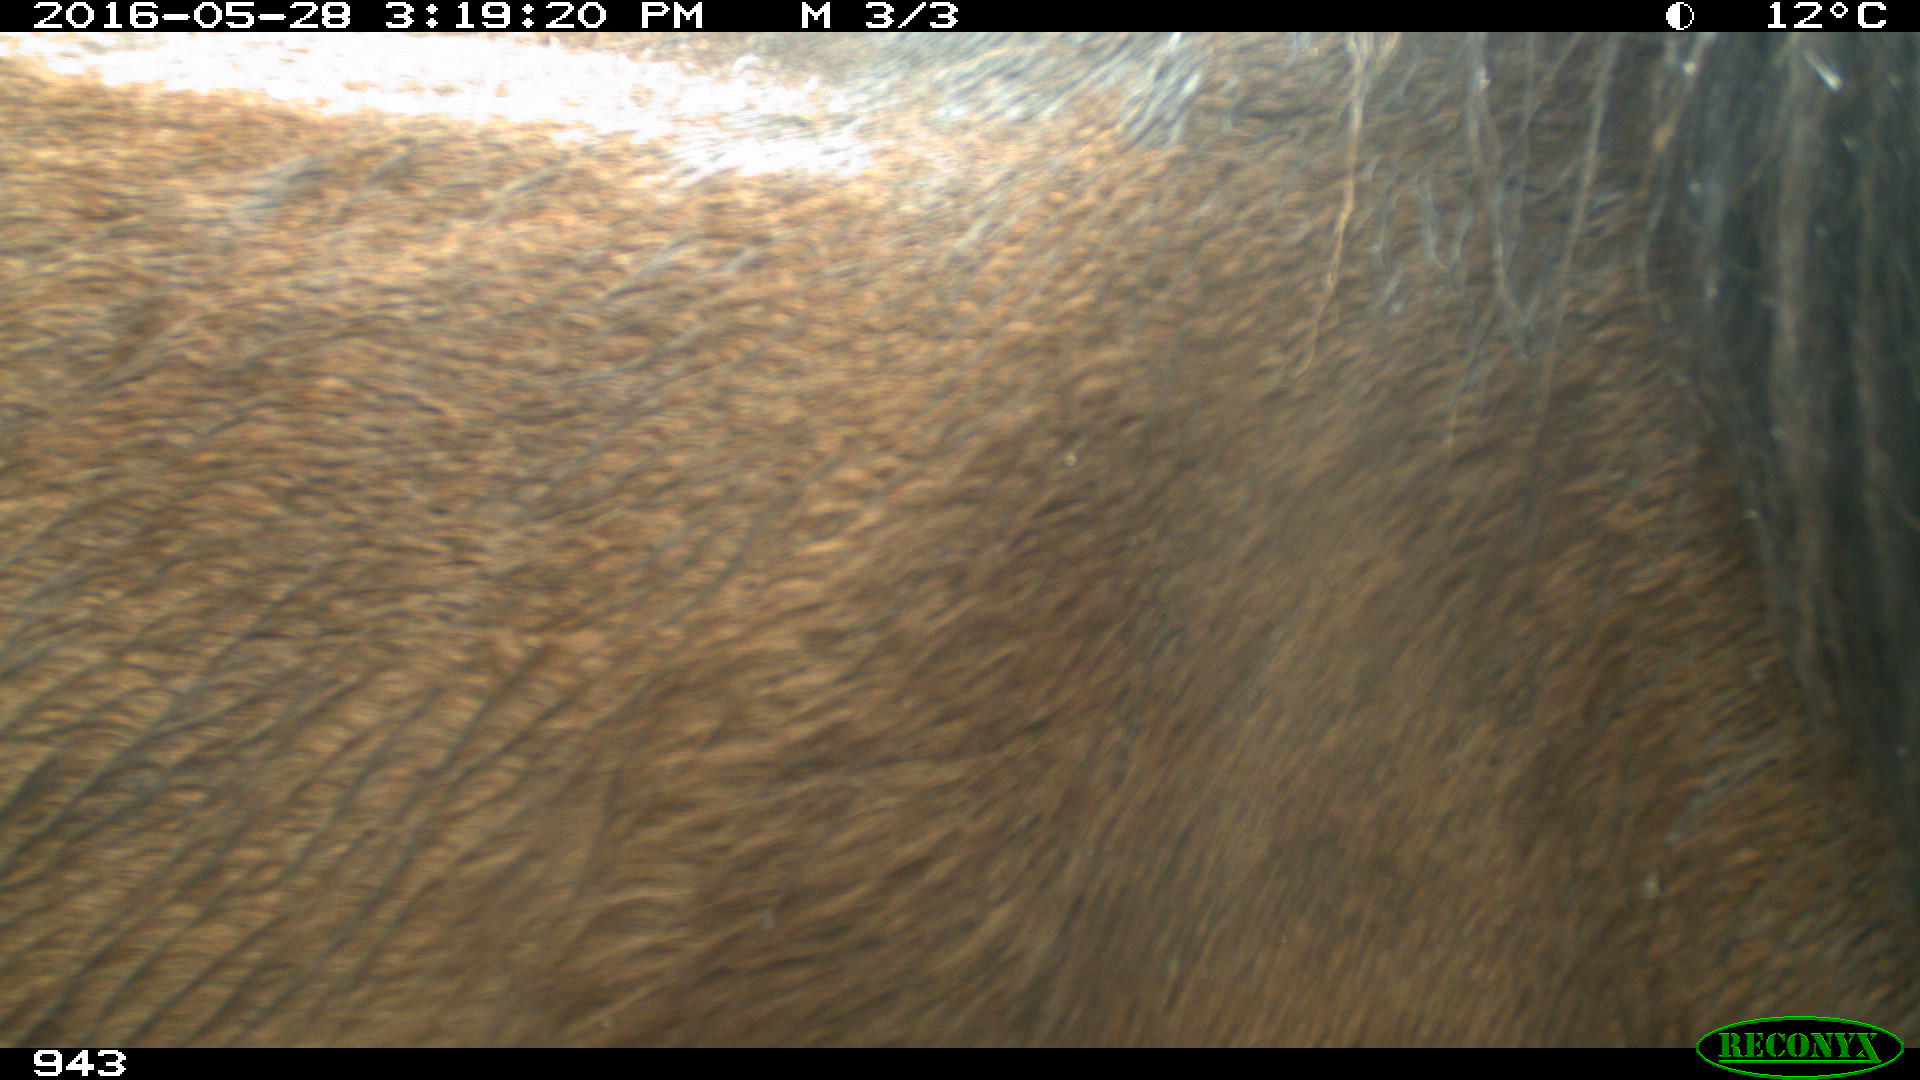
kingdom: Animalia
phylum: Chordata
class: Mammalia
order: Perissodactyla
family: Equidae
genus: Equus
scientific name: Equus caballus
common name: Horse
